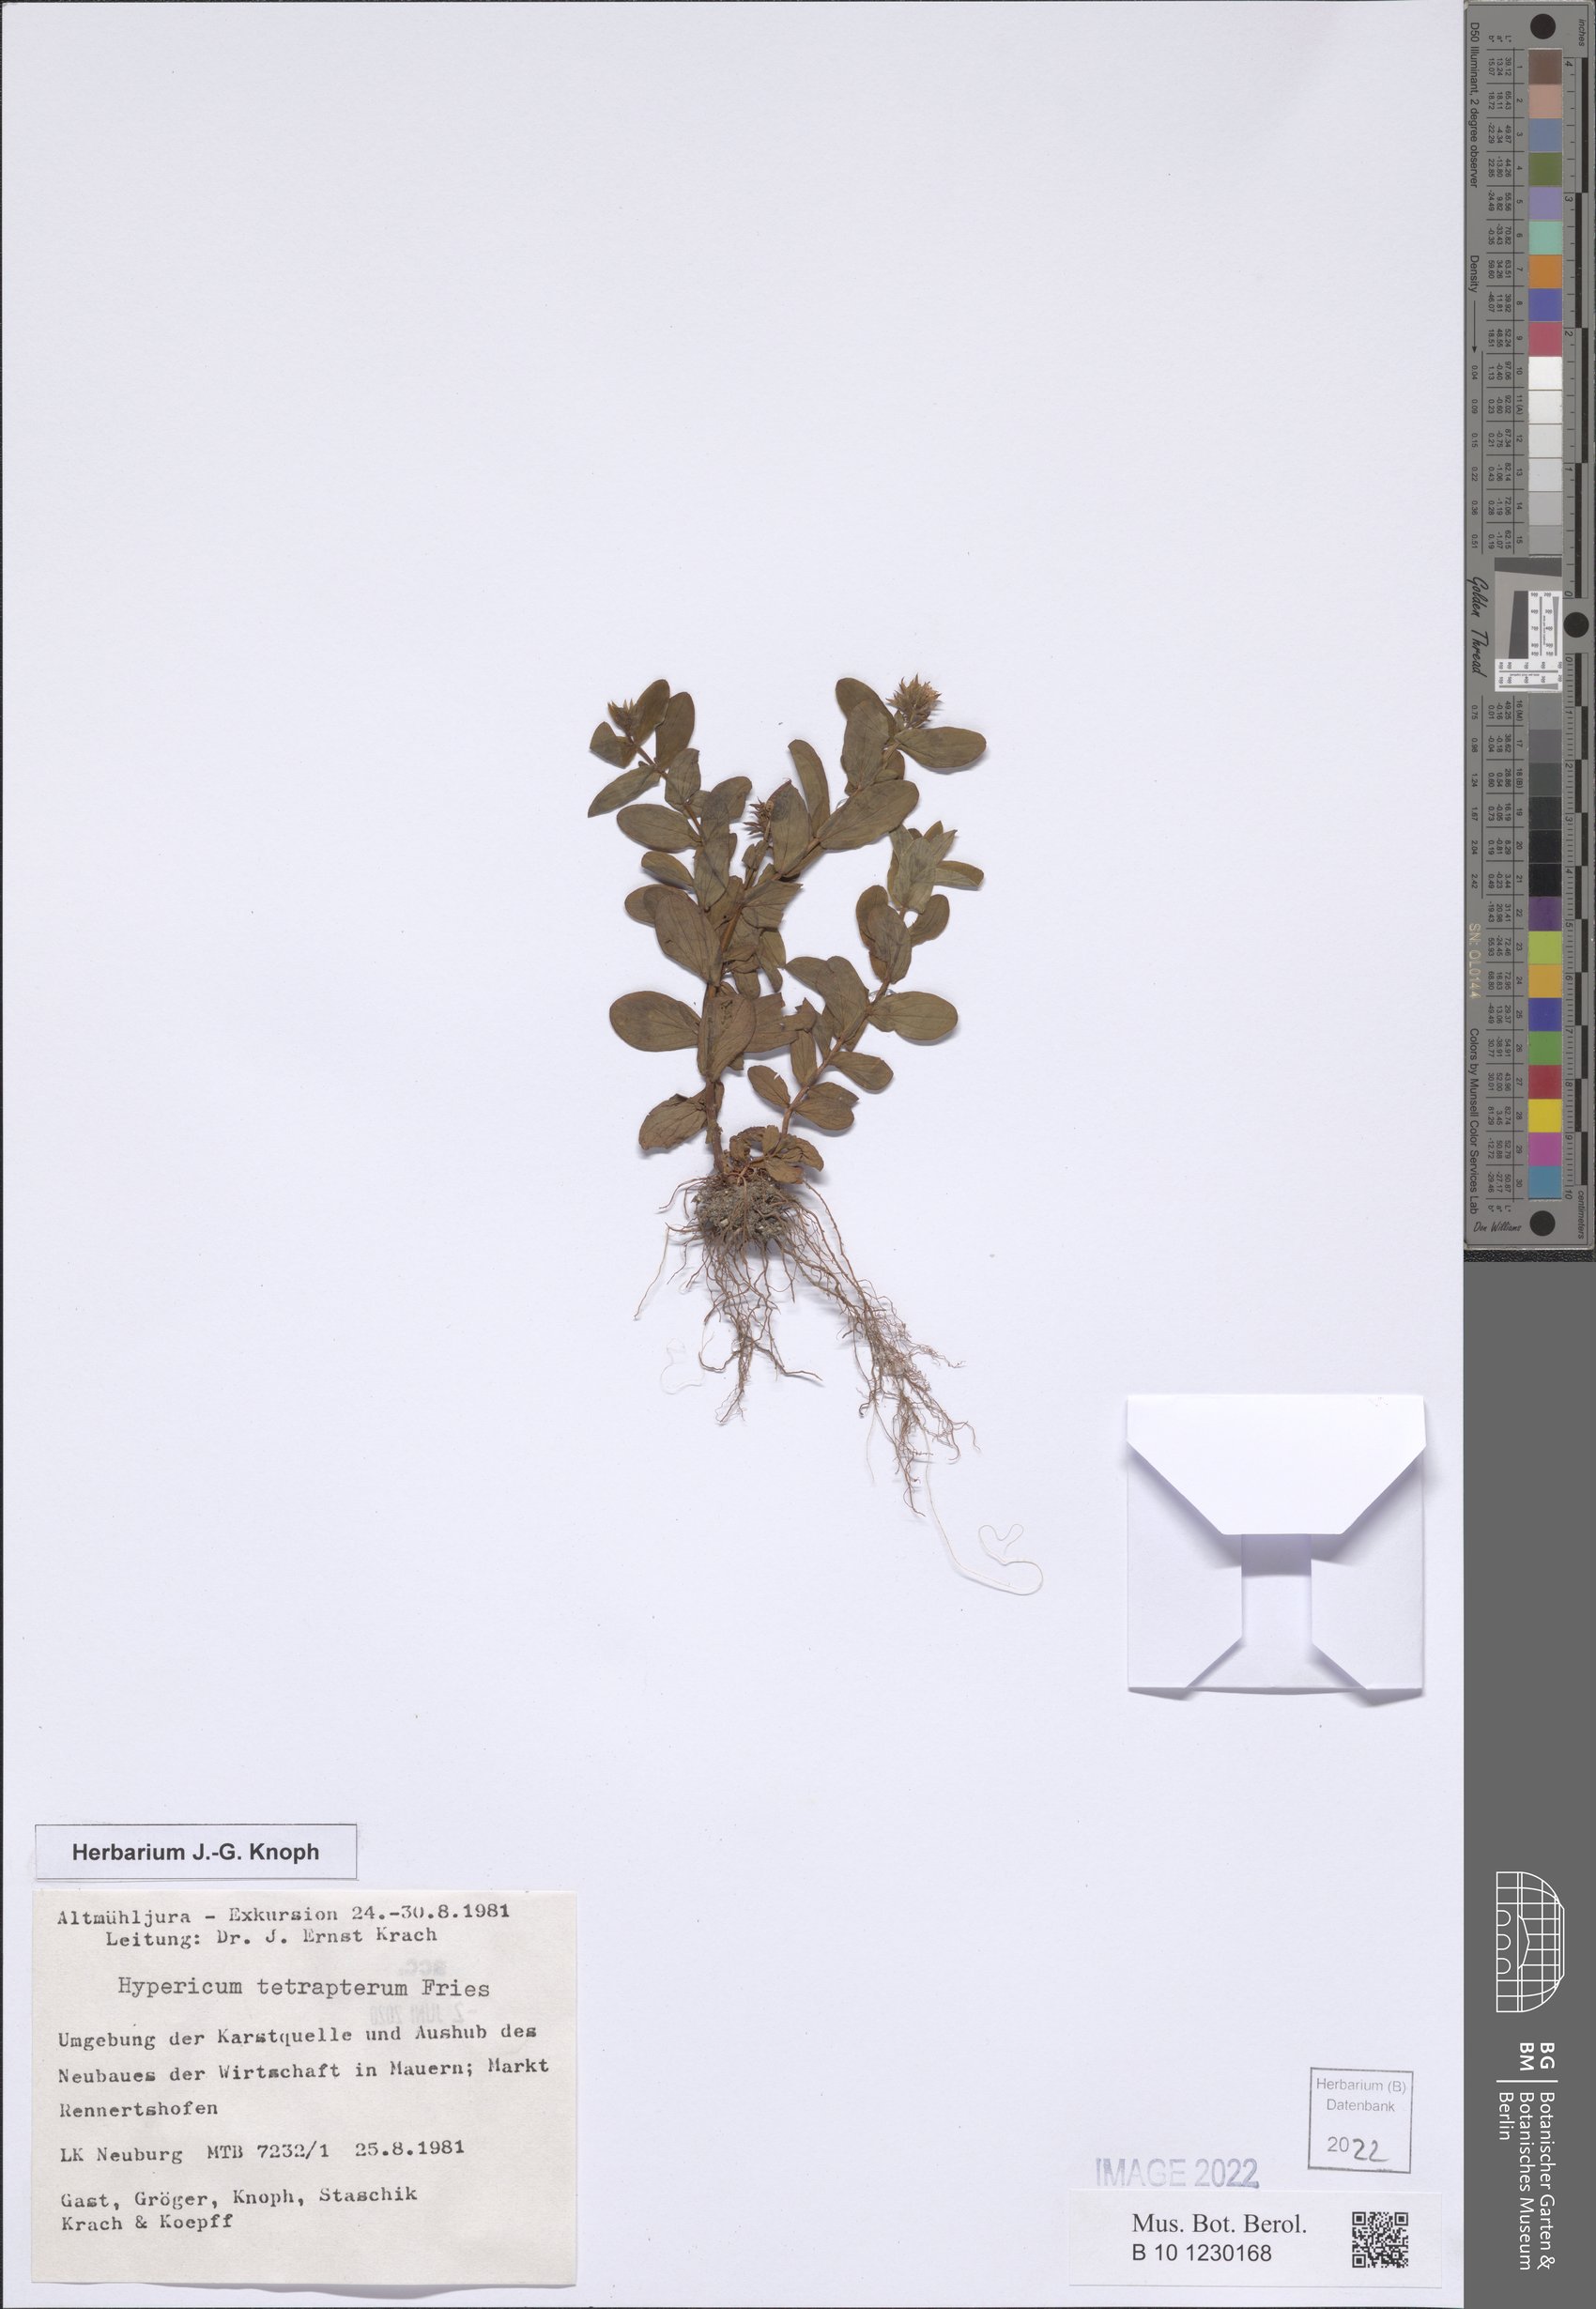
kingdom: Plantae
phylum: Tracheophyta
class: Magnoliopsida
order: Malpighiales
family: Hypericaceae
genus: Hypericum
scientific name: Hypericum tetrapterum
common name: Square-stalked st. john's-wort
